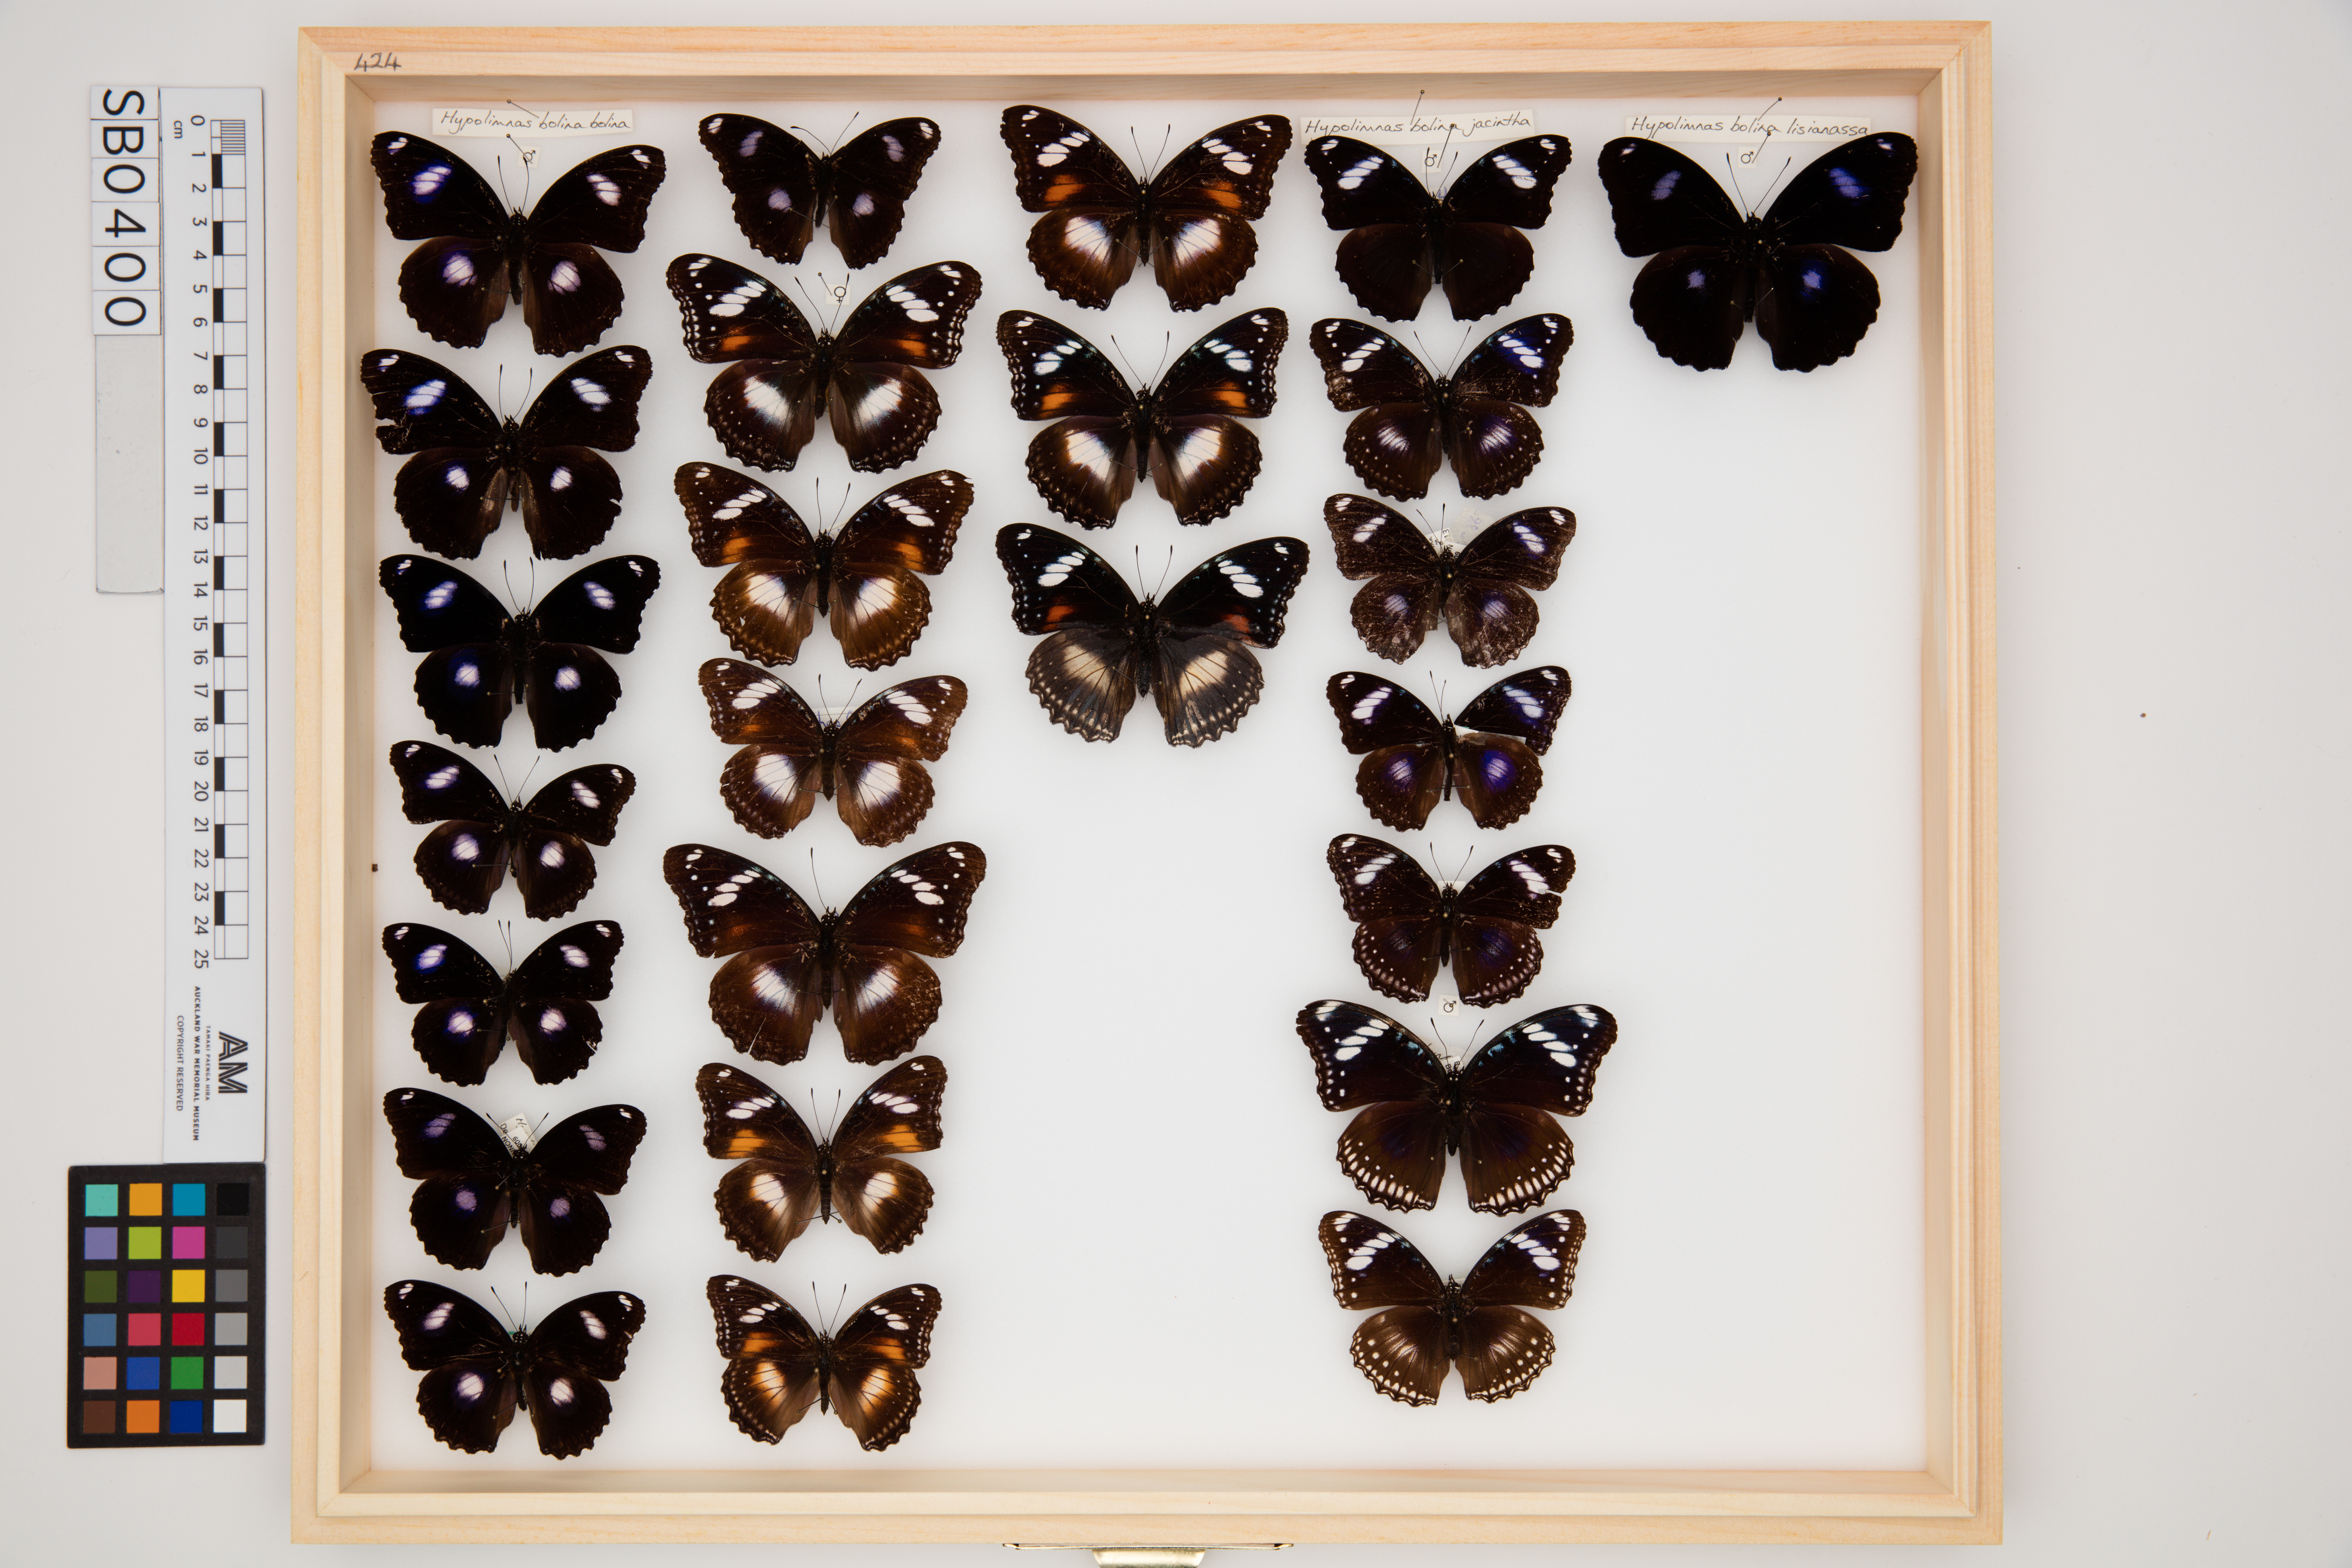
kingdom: Animalia
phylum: Arthropoda
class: Insecta
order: Lepidoptera
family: Nymphalidae
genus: Hypolimnas
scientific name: Hypolimnas bolina
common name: Great eggfly
